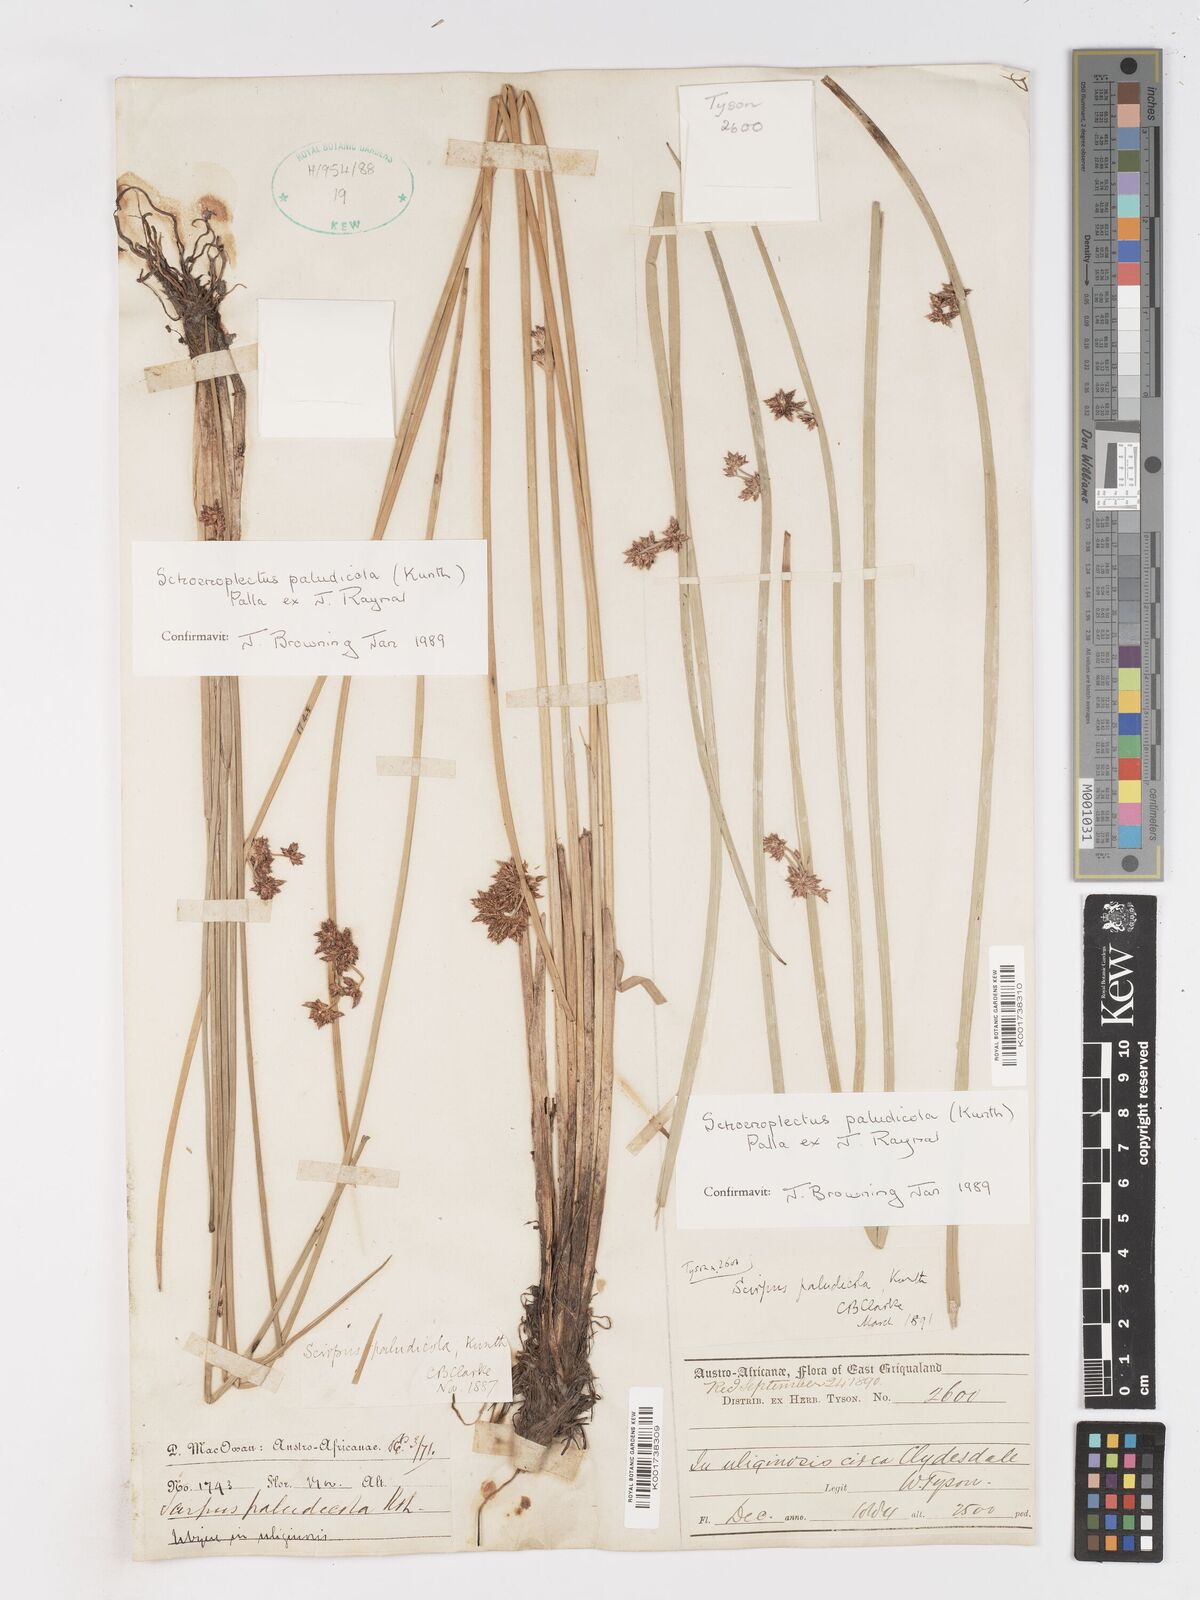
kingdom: Plantae
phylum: Tracheophyta
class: Liliopsida
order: Poales
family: Cyperaceae
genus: Schoenoplectiella
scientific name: Schoenoplectiella paludicola
